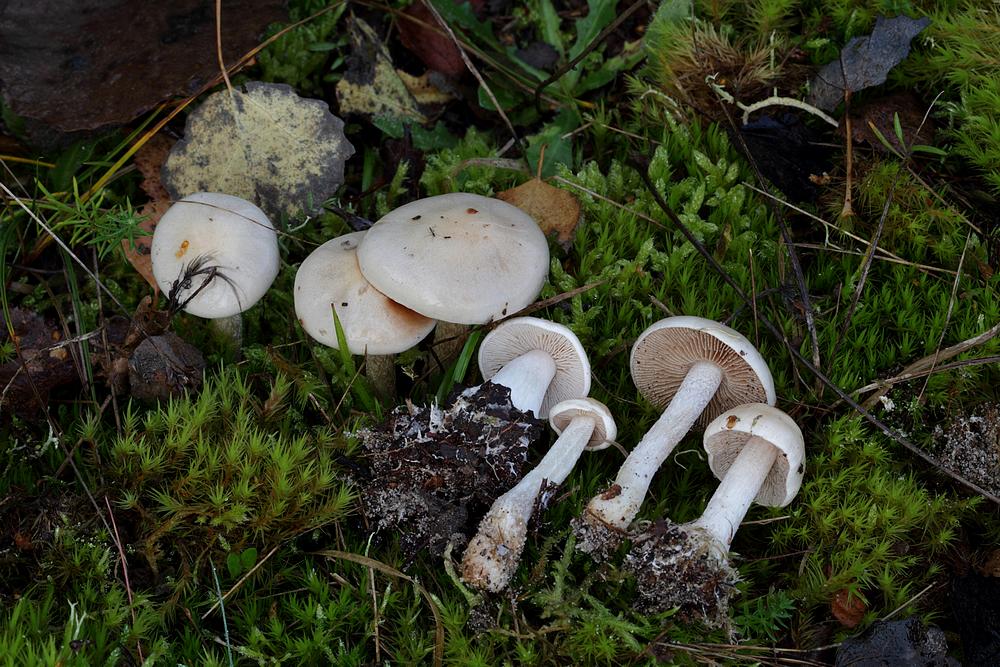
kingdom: Fungi
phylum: Basidiomycota
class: Agaricomycetes
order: Agaricales
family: Hymenogastraceae
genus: Hebeloma
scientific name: Hebeloma leucosarx
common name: højstokket tåreblad
